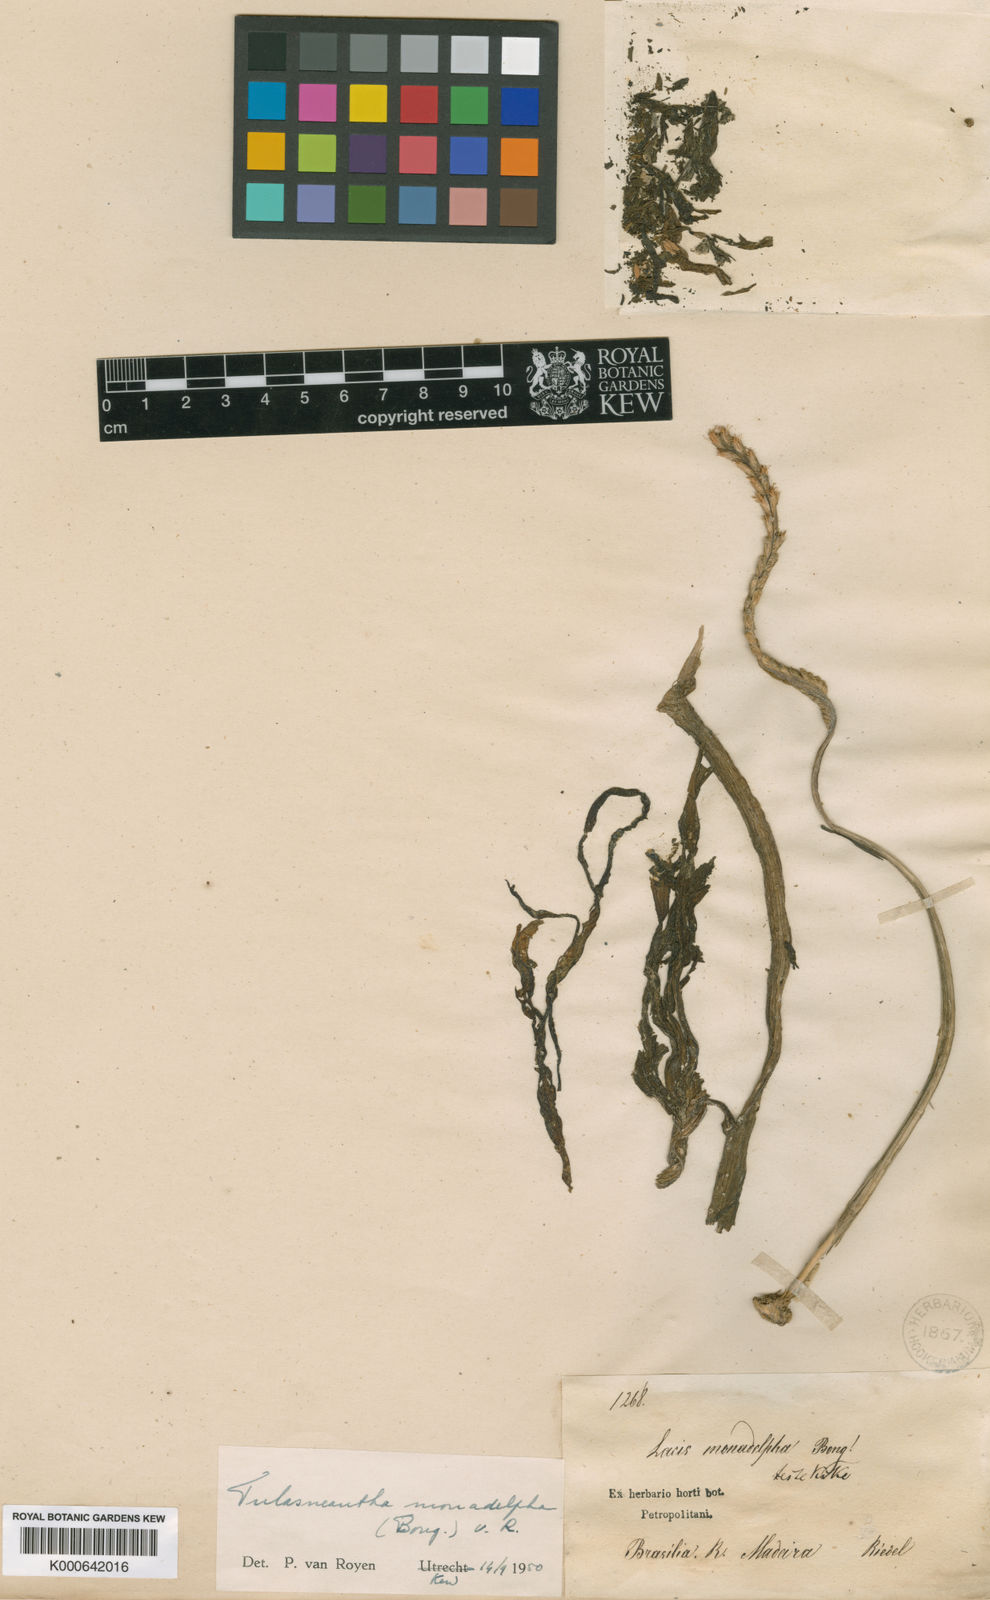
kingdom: Plantae
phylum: Tracheophyta
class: Magnoliopsida
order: Malpighiales
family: Podostemaceae
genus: Mourera
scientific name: Mourera monadelpha
